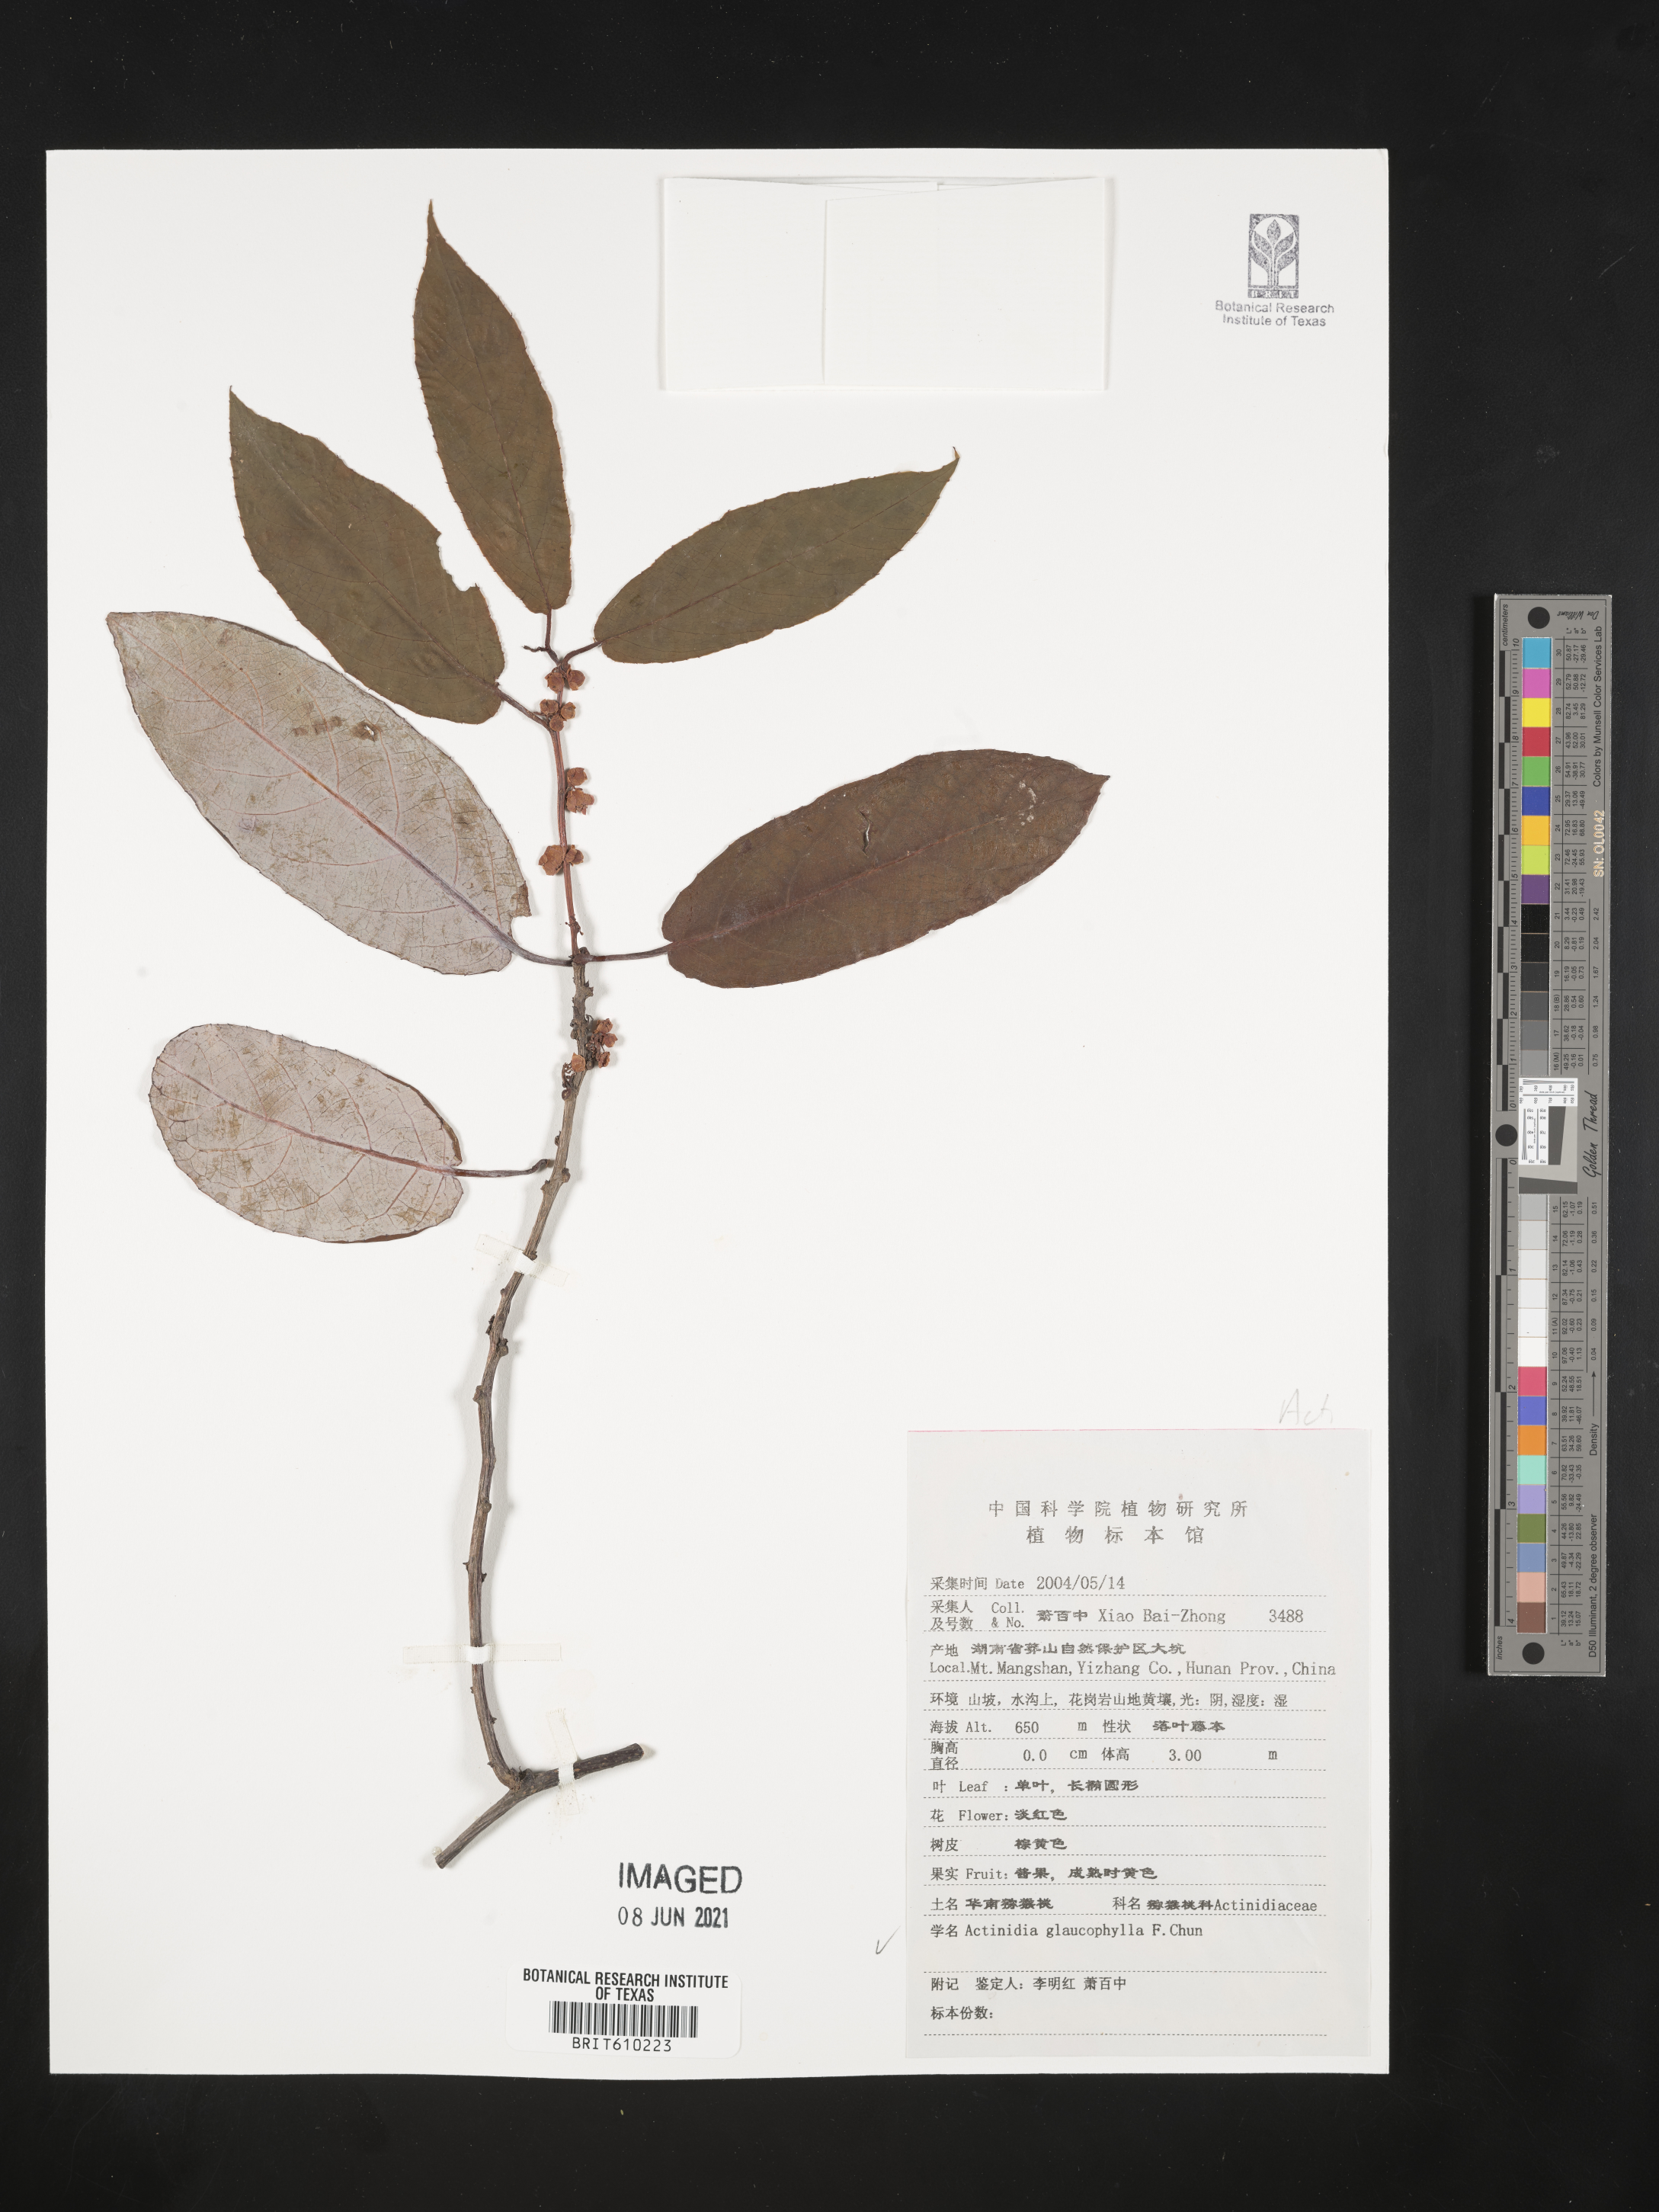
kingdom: Plantae
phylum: Tracheophyta
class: Magnoliopsida
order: Ericales
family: Actinidiaceae
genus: Actinidia
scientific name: Actinidia fortunatii
